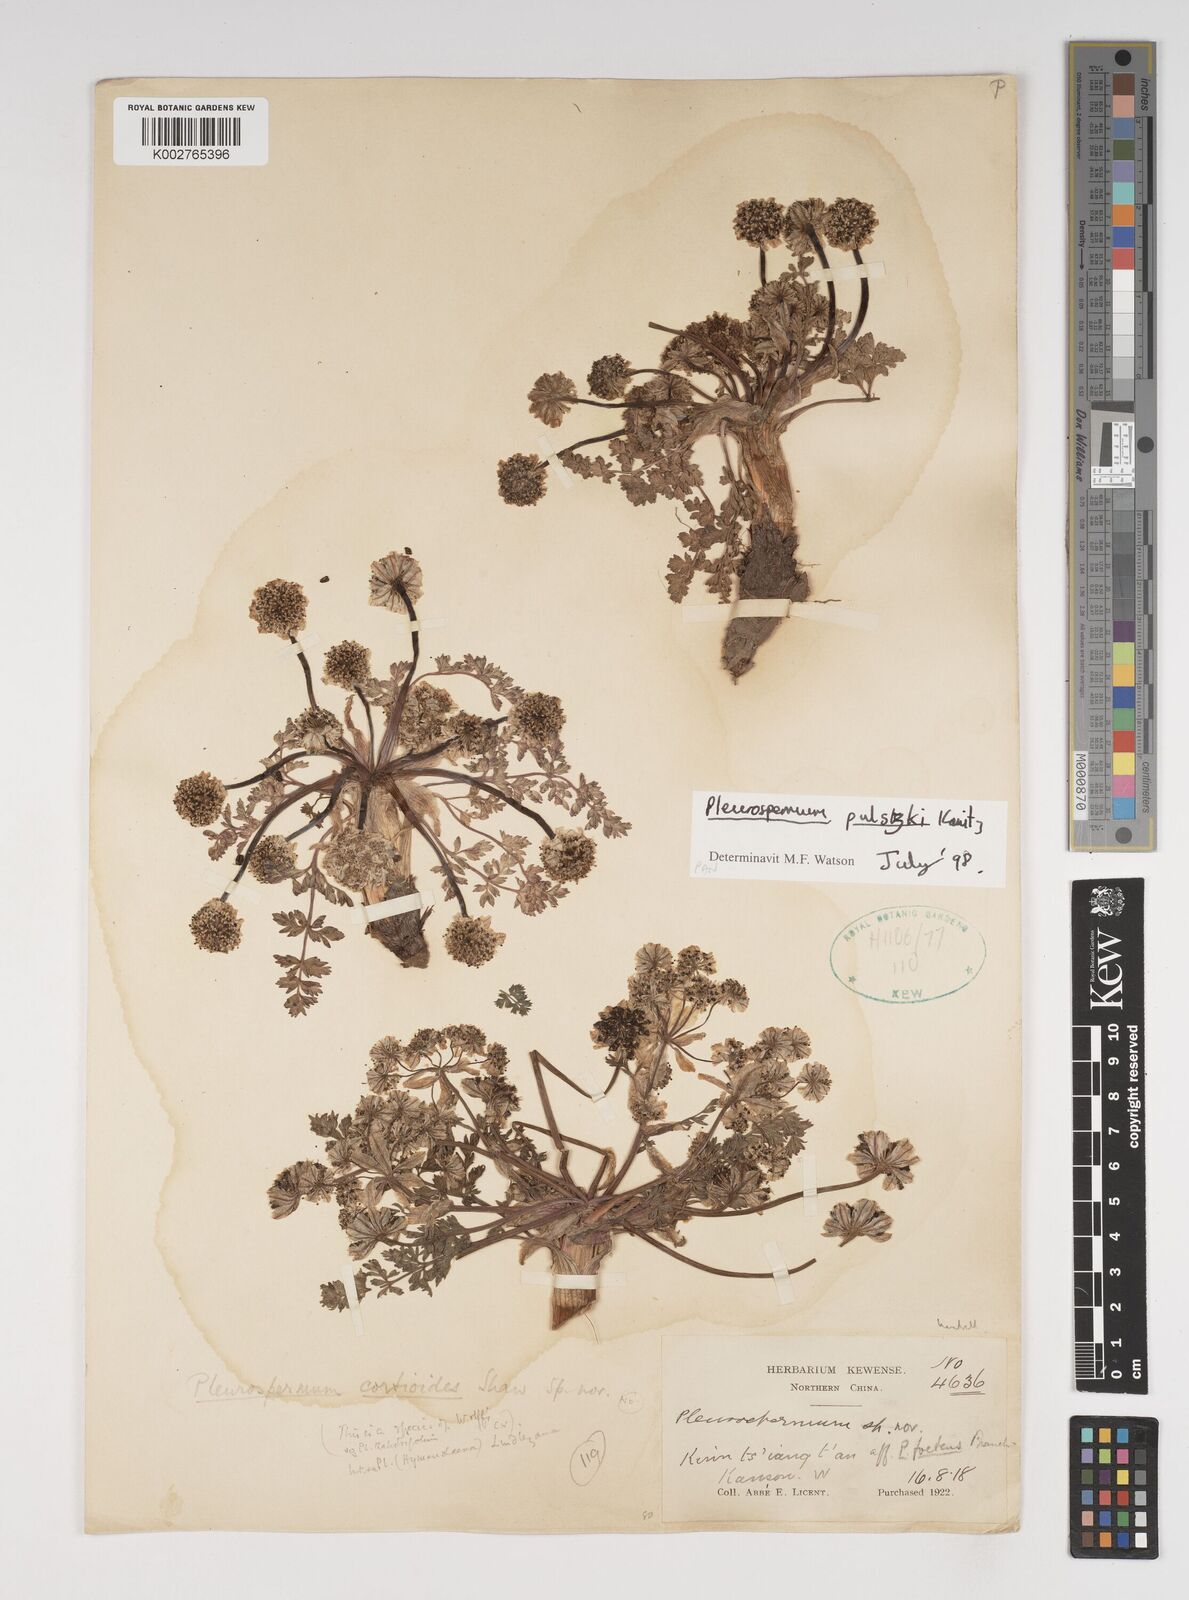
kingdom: Plantae
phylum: Tracheophyta
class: Magnoliopsida
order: Apiales
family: Apiaceae
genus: Hymenidium
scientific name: Hymenidium pulszkyi
